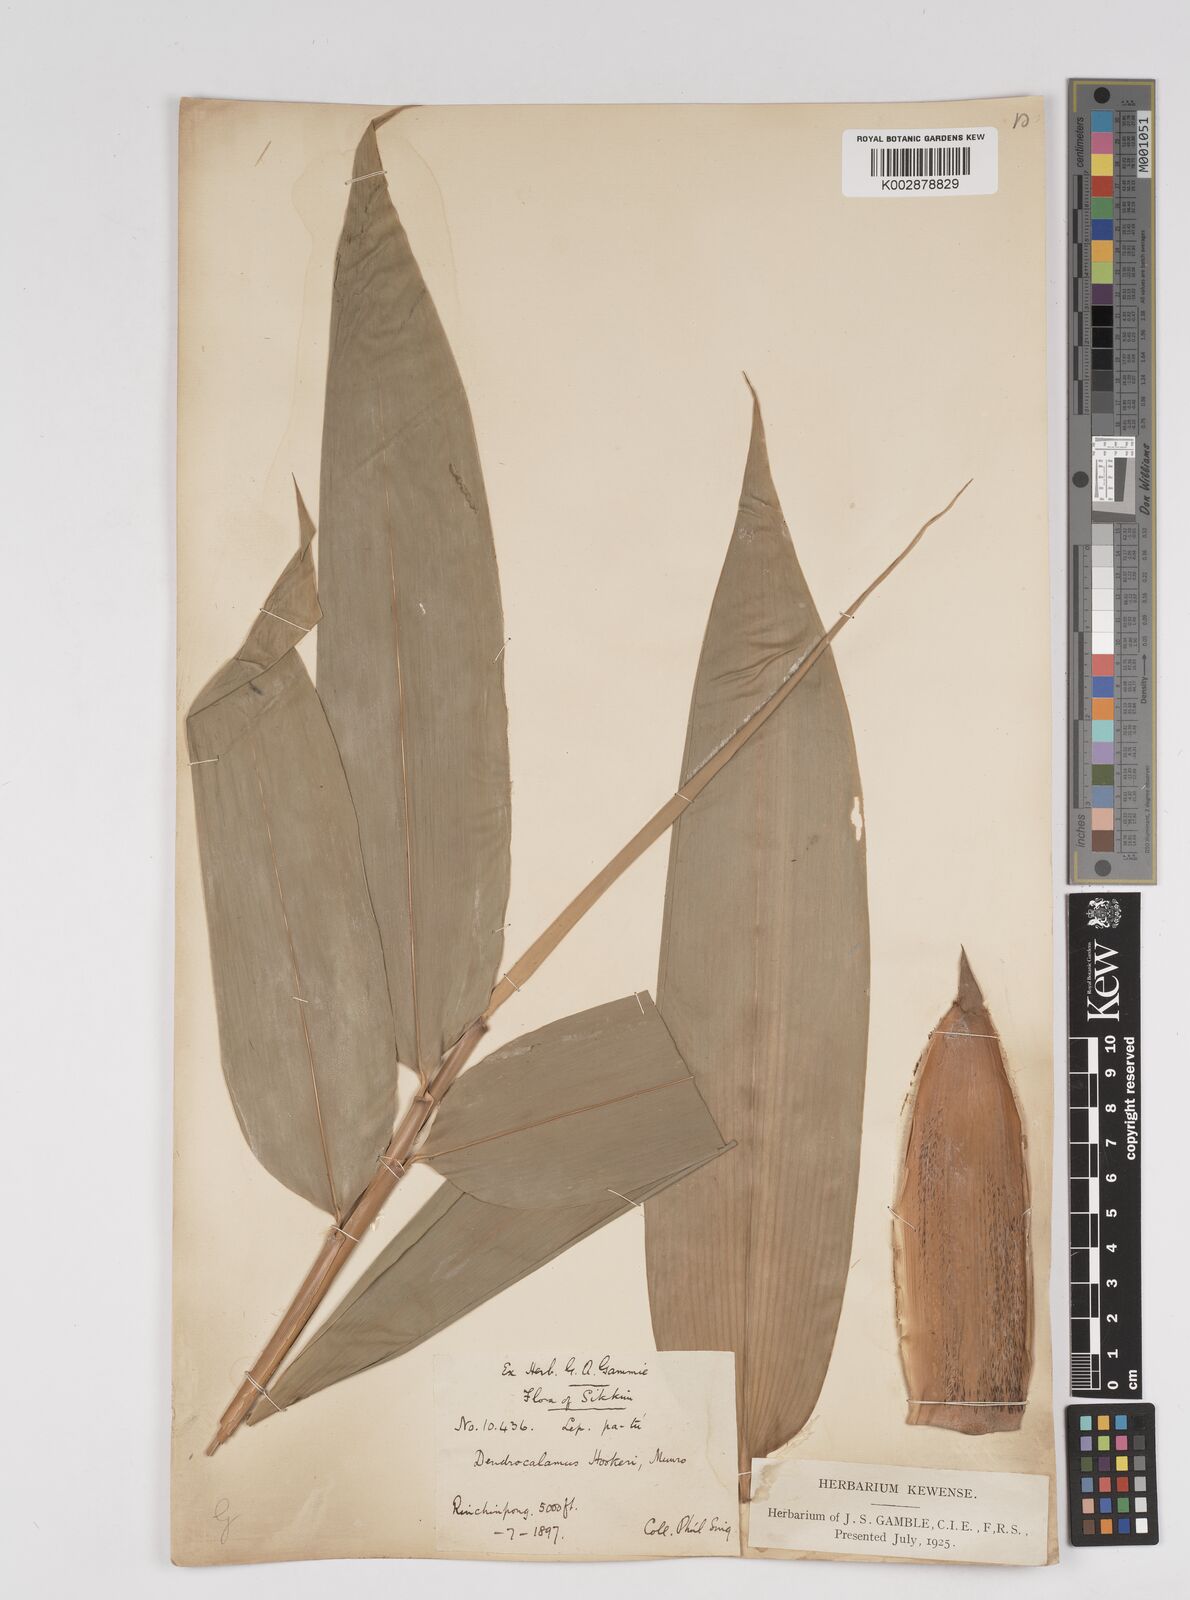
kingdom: Plantae
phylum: Tracheophyta
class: Liliopsida
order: Poales
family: Poaceae
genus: Dendrocalamus
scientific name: Dendrocalamus hookeri
